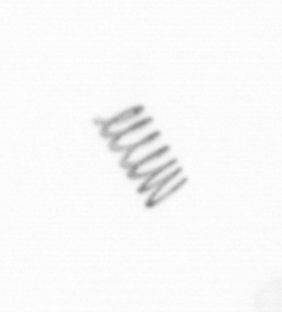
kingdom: Chromista
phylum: Ochrophyta
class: Bacillariophyceae
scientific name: Bacillariophyceae
